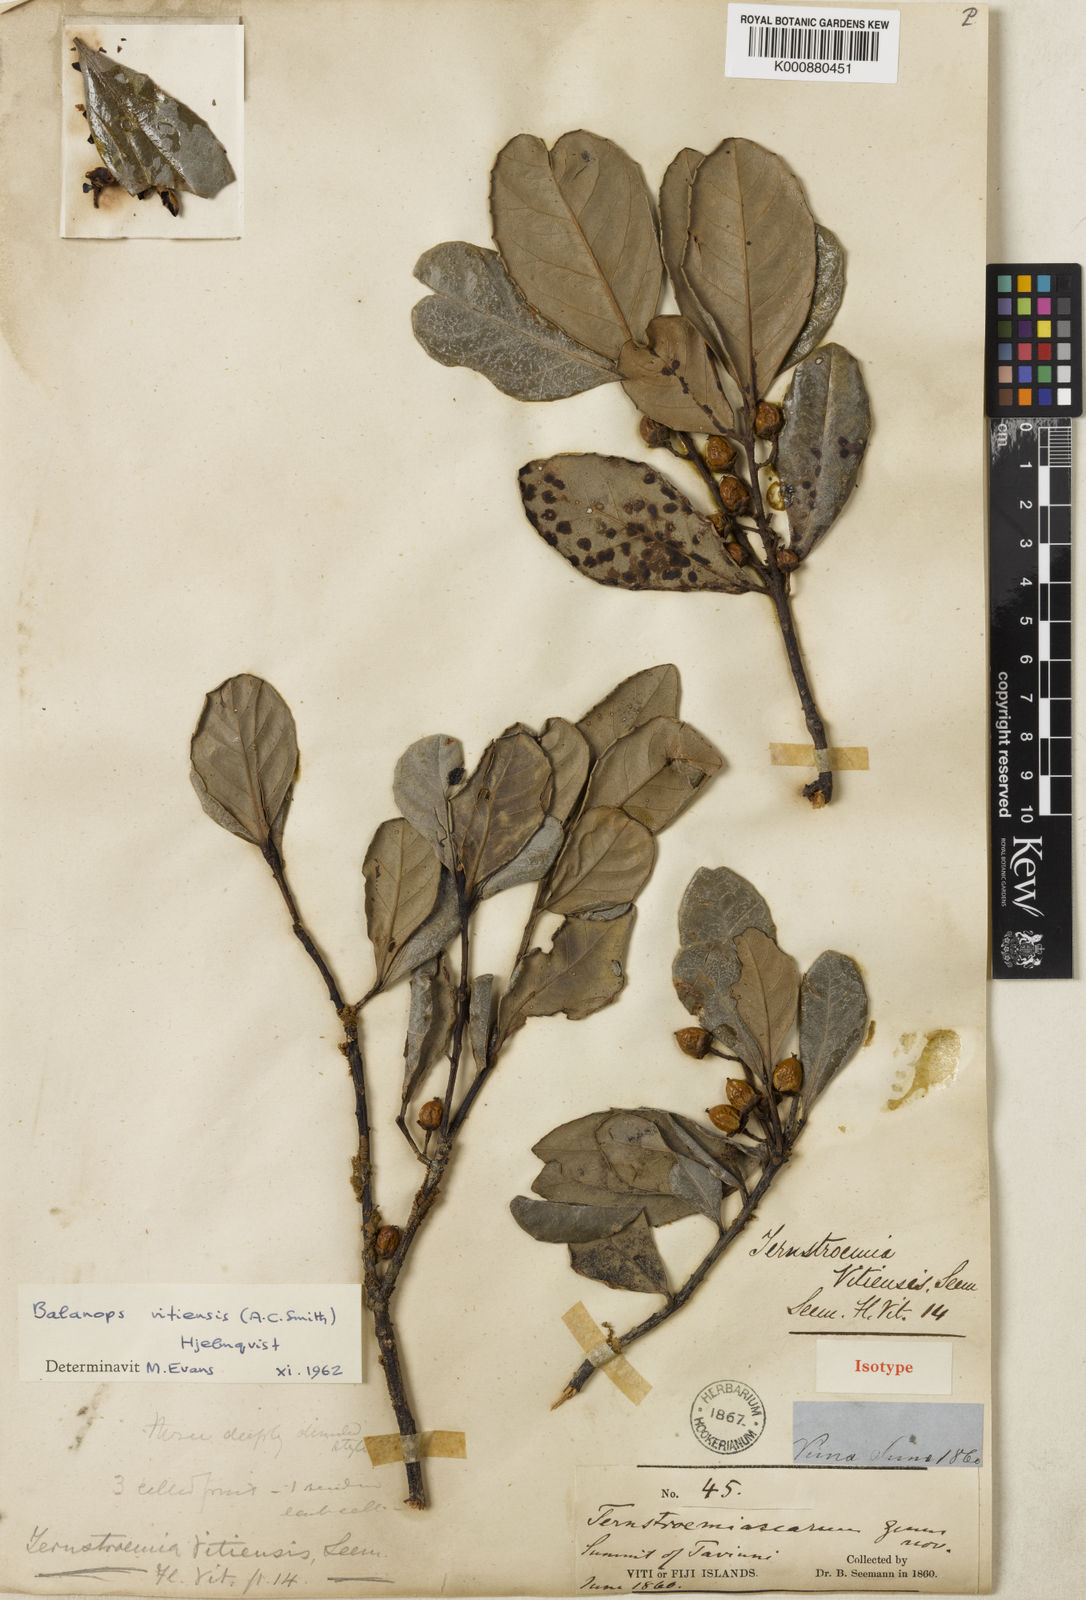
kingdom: Plantae
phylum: Tracheophyta
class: Magnoliopsida
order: Malpighiales
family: Balanopaceae
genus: Balanops
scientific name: Balanops pedicellata
